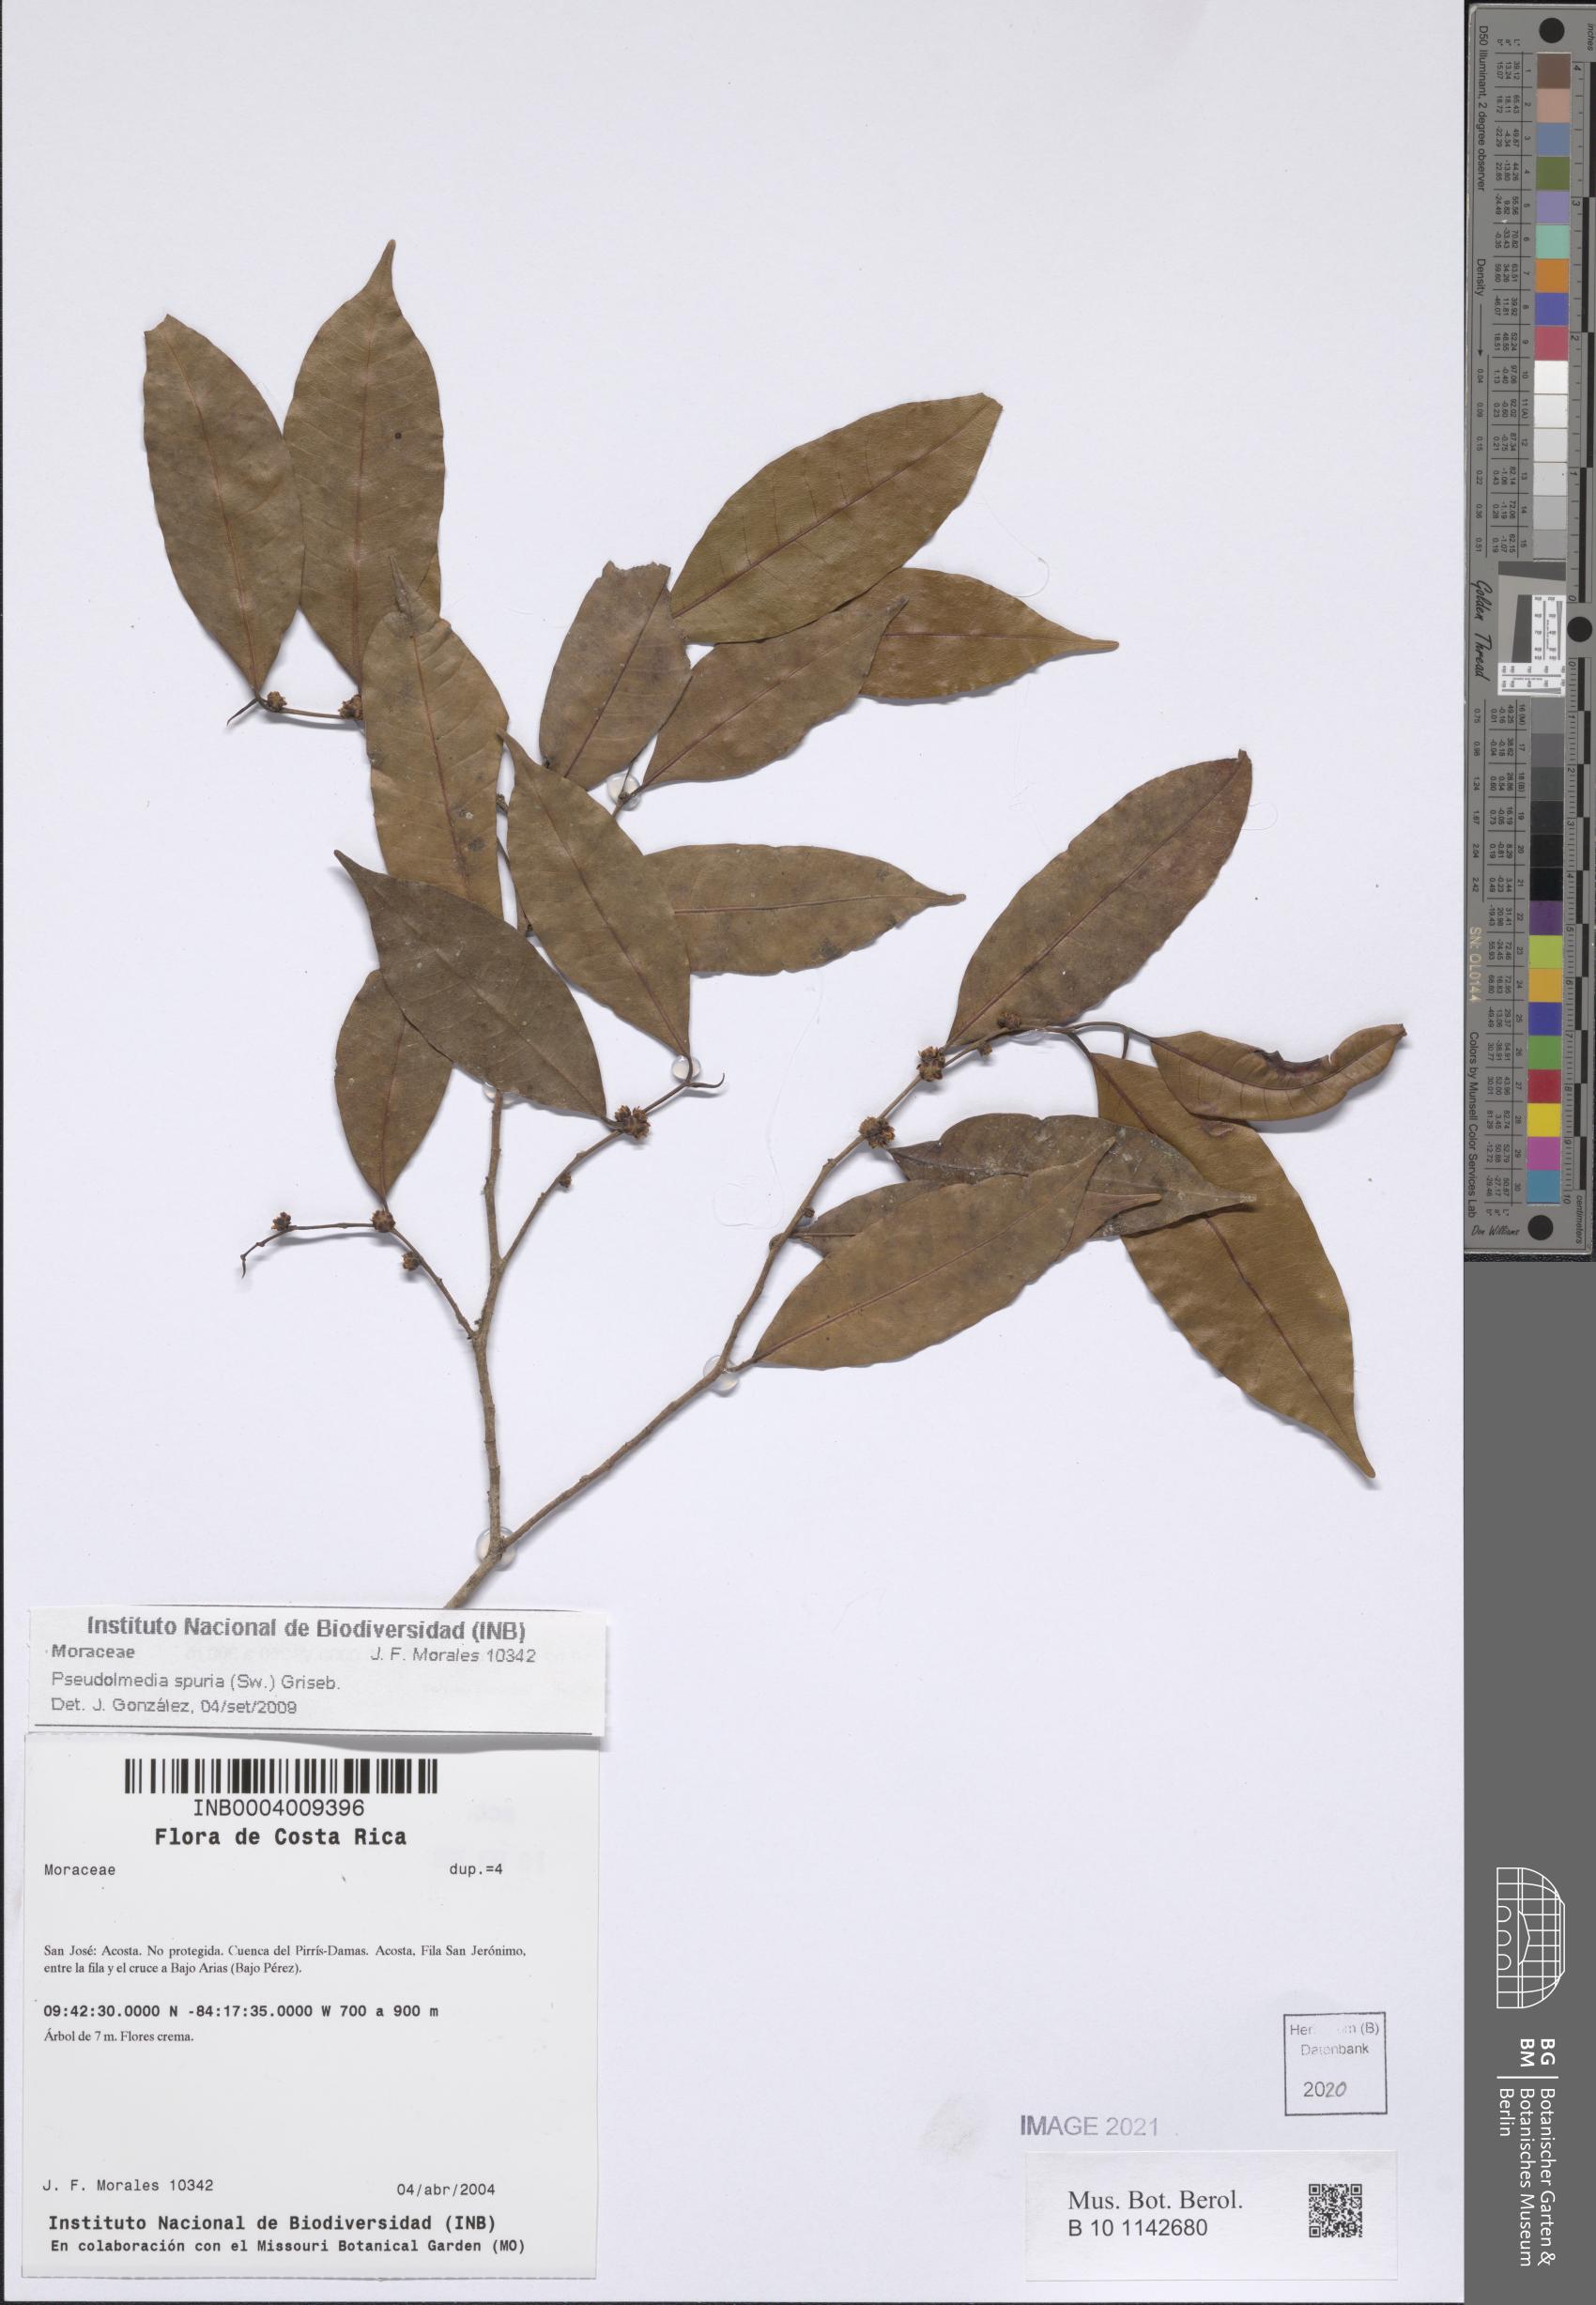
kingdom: Plantae
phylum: Tracheophyta
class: Magnoliopsida
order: Rosales
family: Moraceae
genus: Pseudolmedia
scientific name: Pseudolmedia spuria
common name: Bastard-cherry
